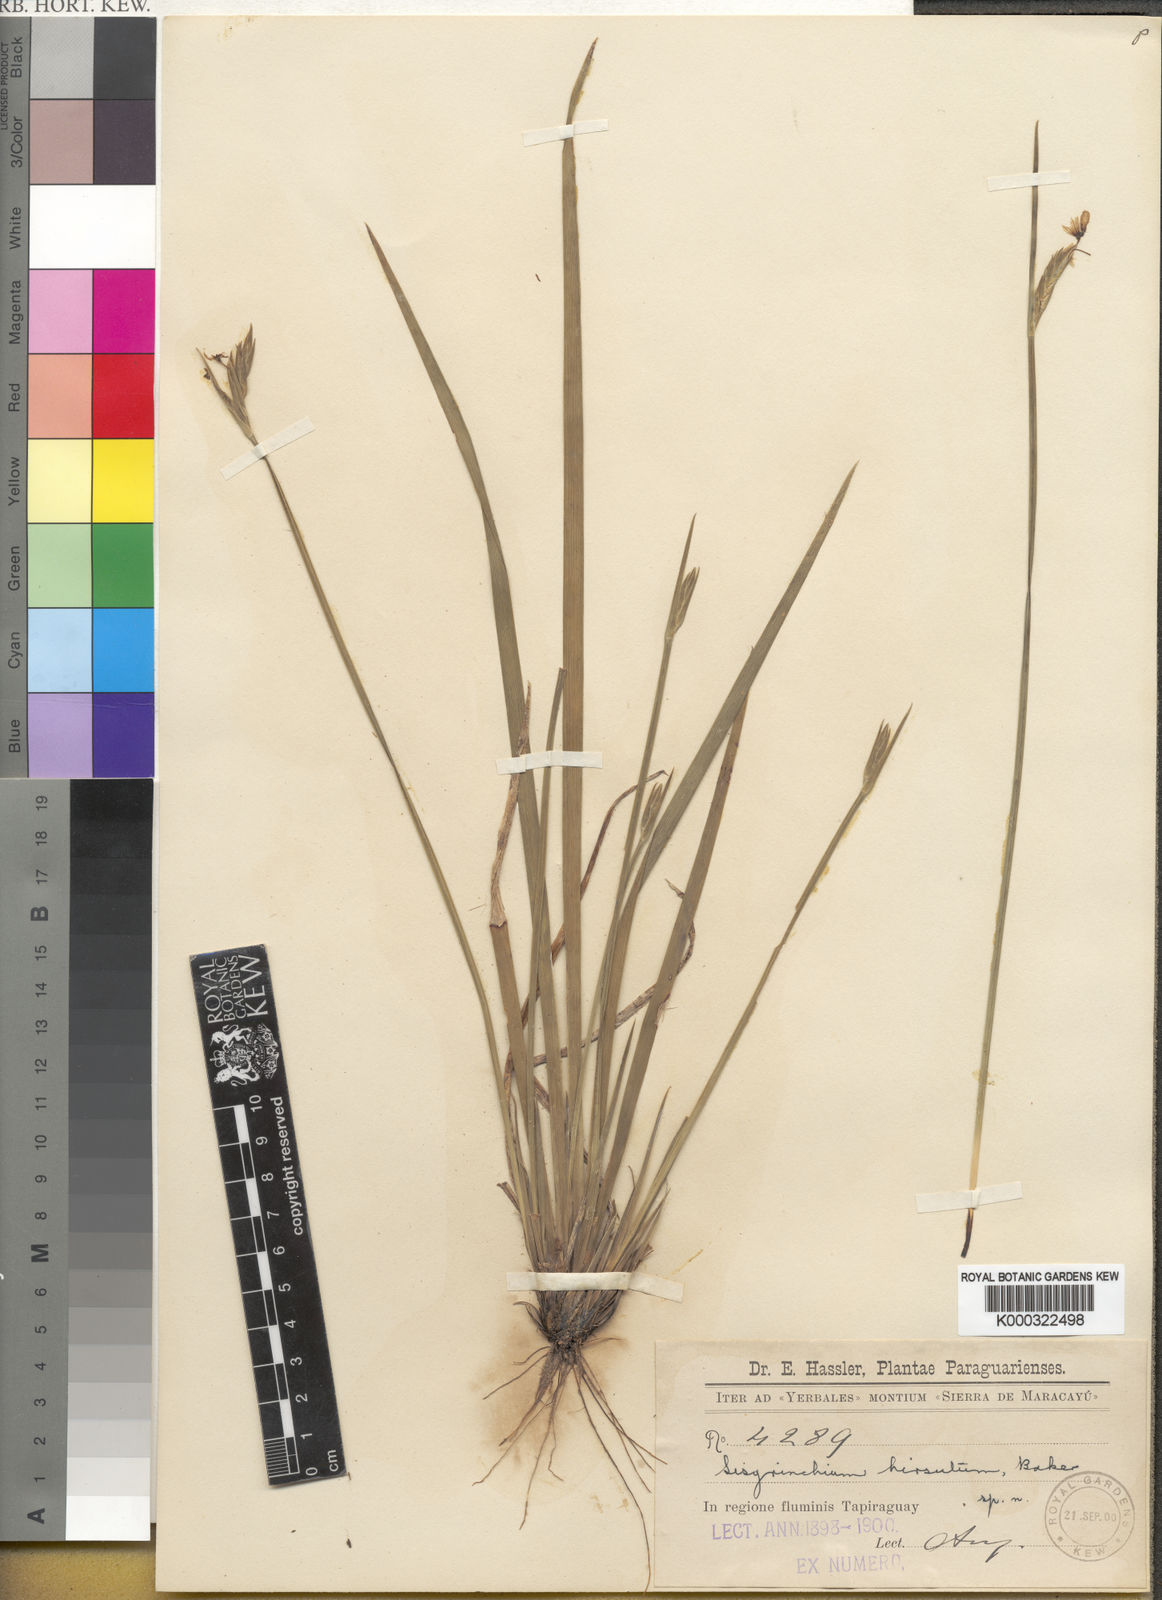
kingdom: Plantae
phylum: Tracheophyta
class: Liliopsida
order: Asparagales
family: Iridaceae
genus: Sisyrinchium
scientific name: Sisyrinchium hirsutum
